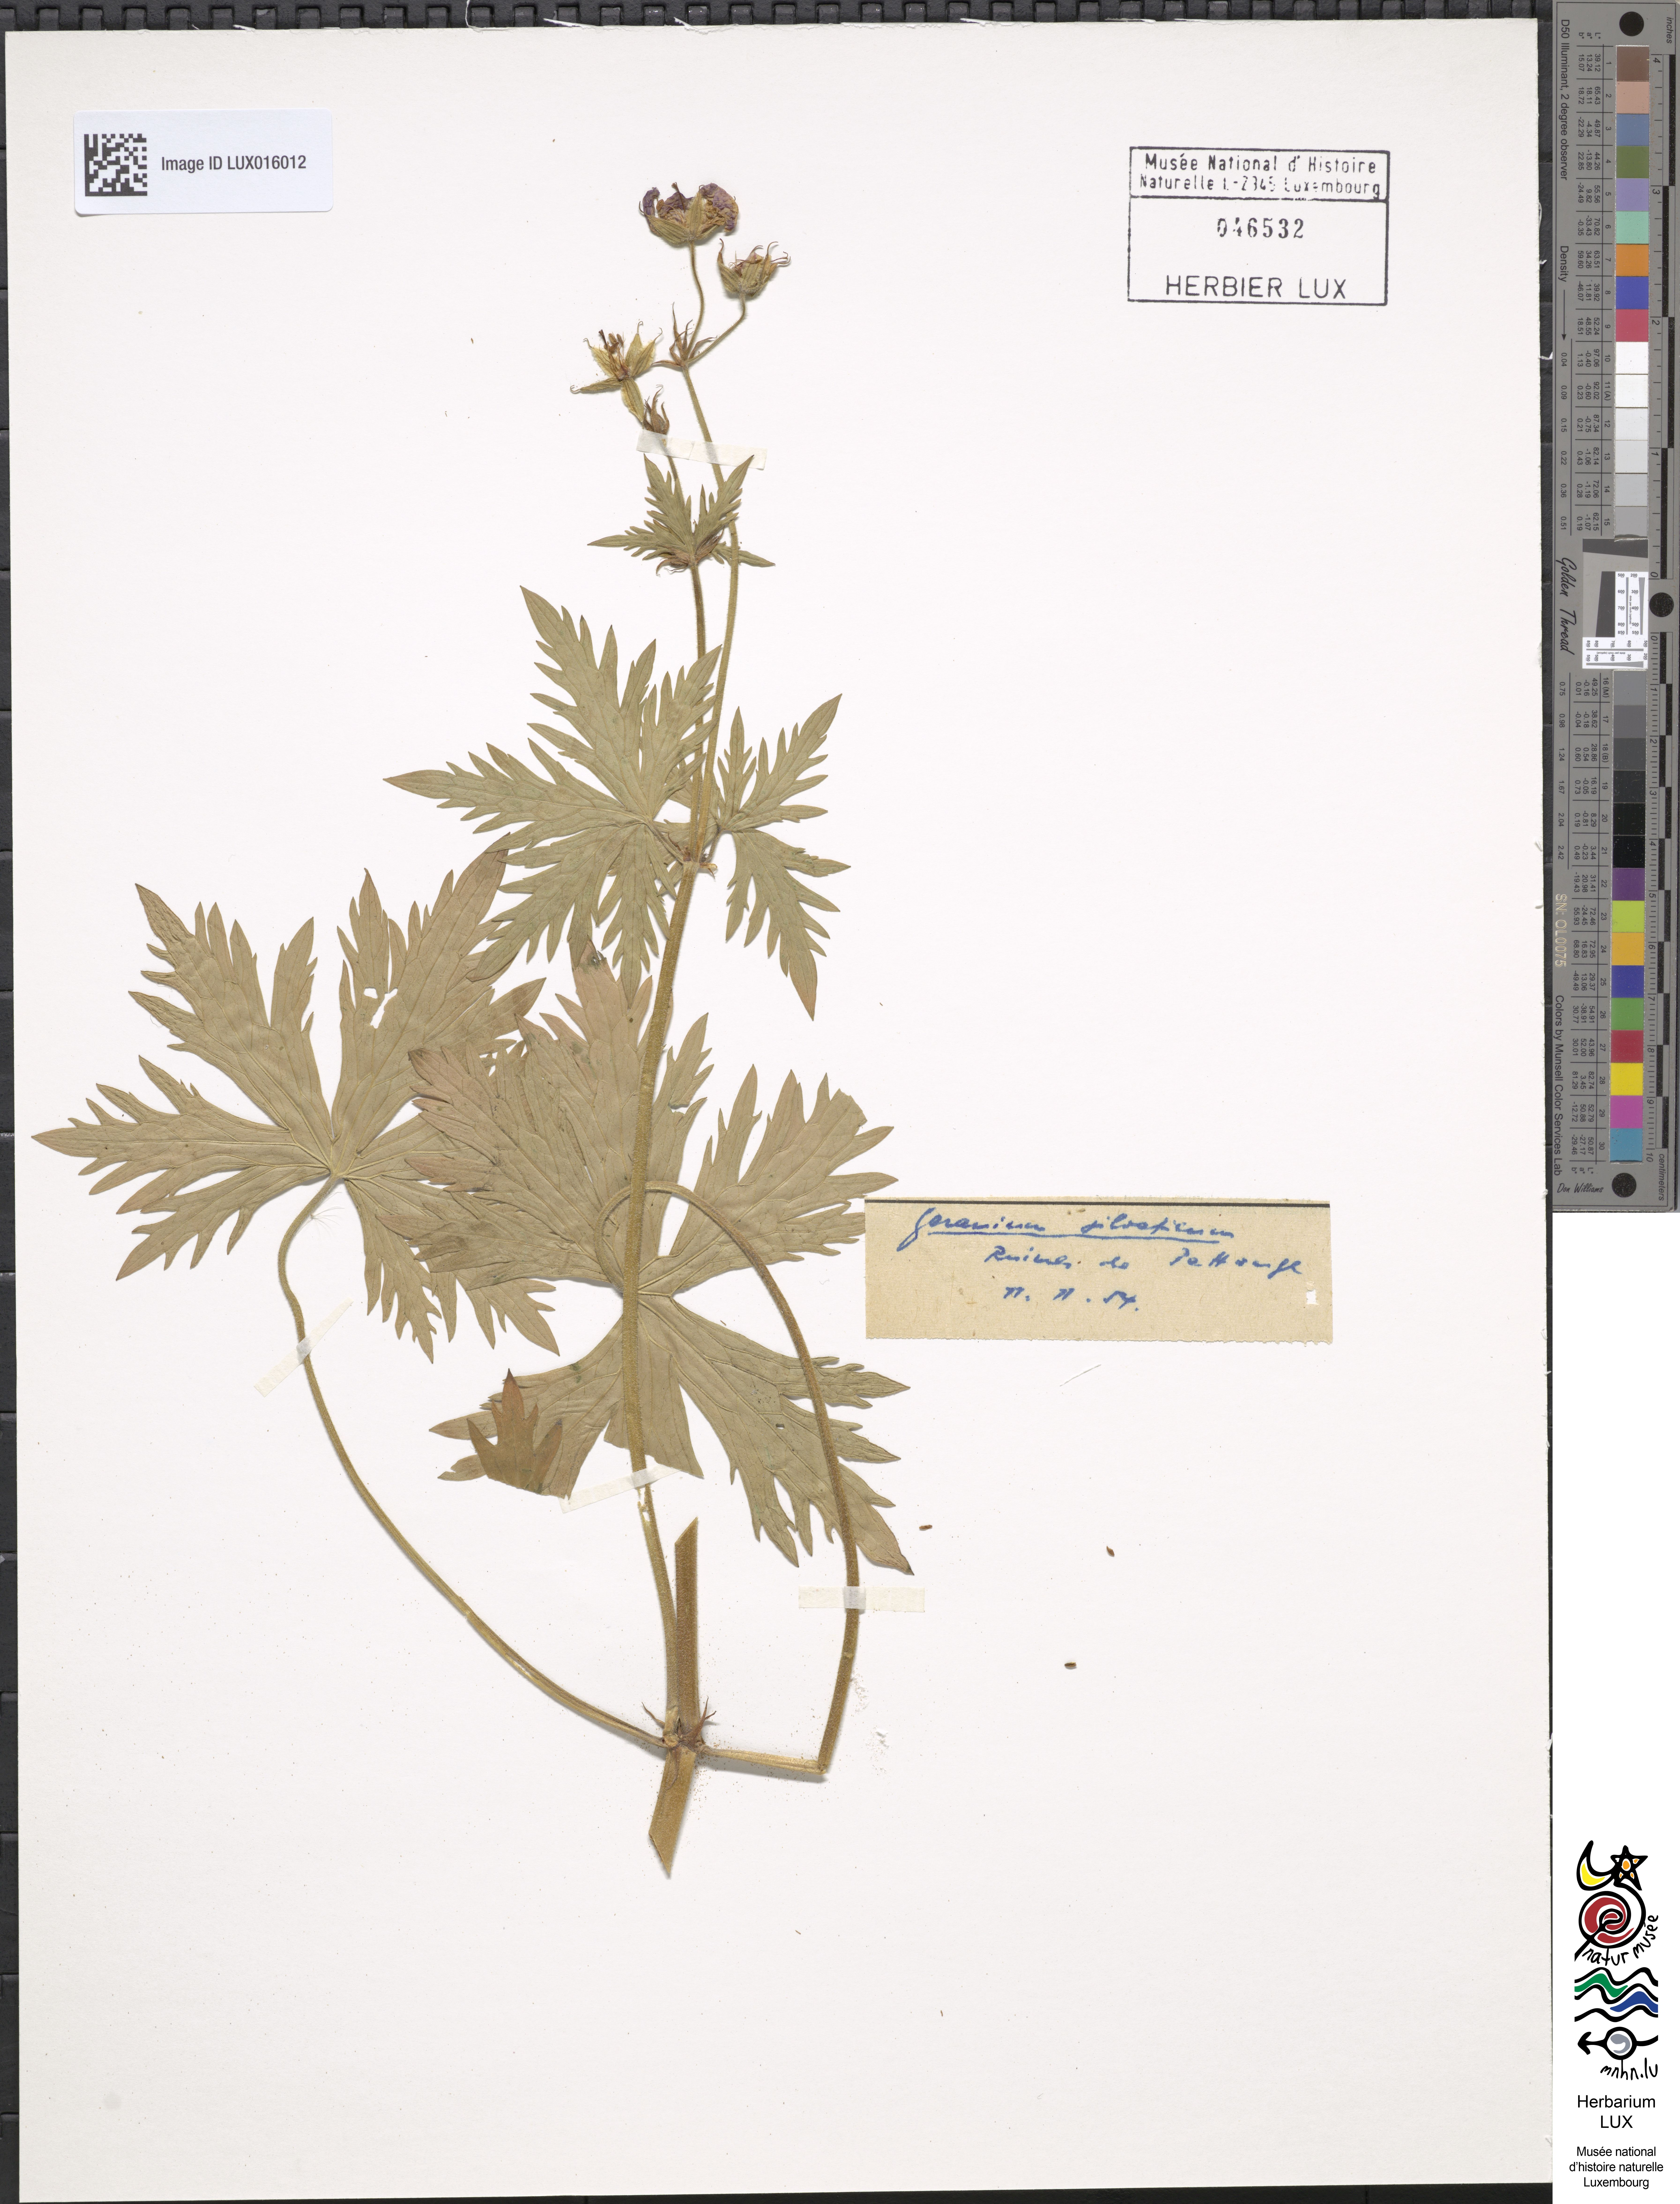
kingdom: Plantae
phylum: Tracheophyta
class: Magnoliopsida
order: Geraniales
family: Geraniaceae
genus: Geranium
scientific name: Geranium sylvaticum
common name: Wood crane's-bill
